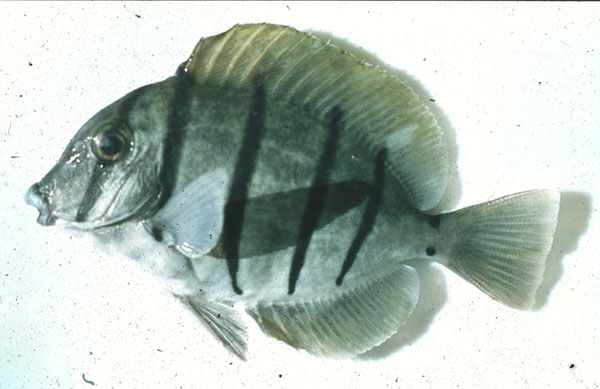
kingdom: Animalia
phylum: Chordata
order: Perciformes
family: Acanthuridae
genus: Acanthurus
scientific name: Acanthurus triostegus
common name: Convict surgeonfish
